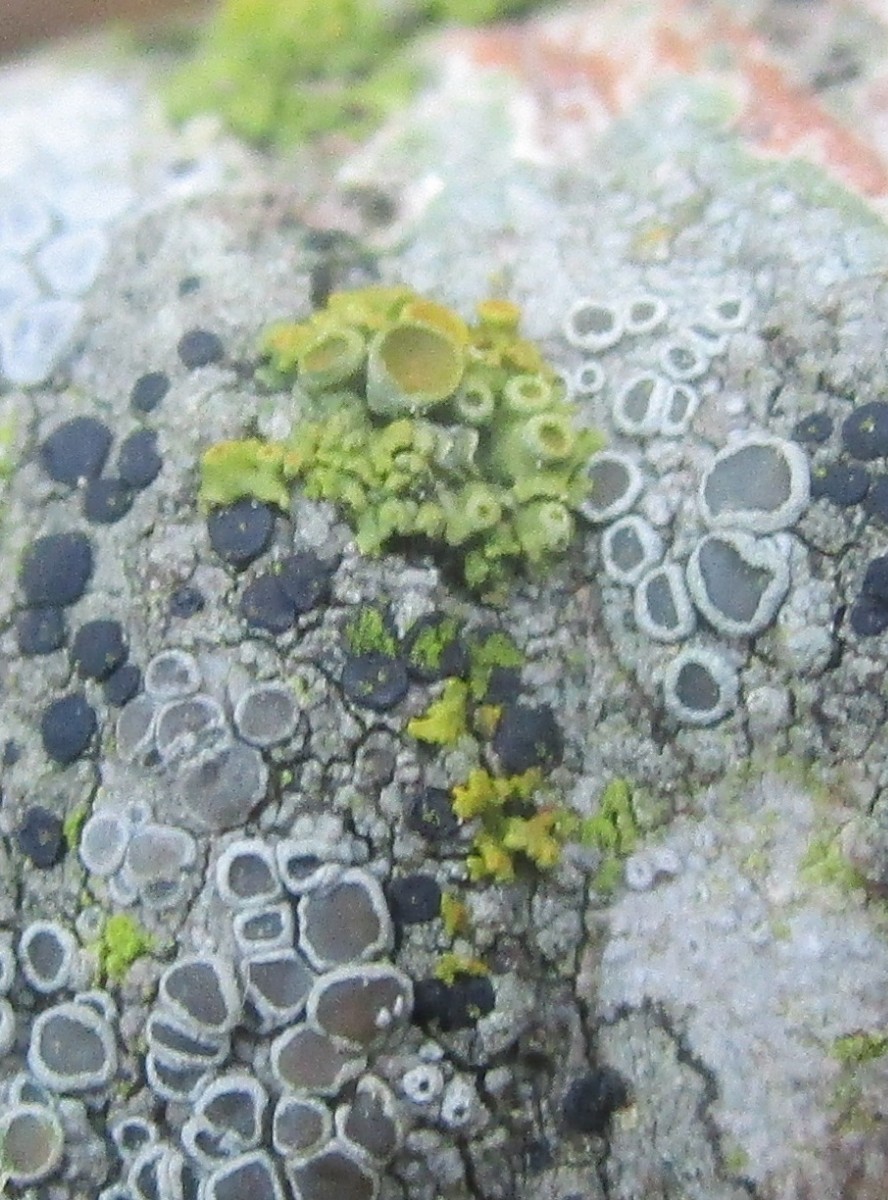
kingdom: Fungi
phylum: Ascomycota
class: Lecanoromycetes
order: Teloschistales
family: Teloschistaceae
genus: Polycauliona
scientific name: Polycauliona polycarpa
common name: mangefrugtet orangelav
